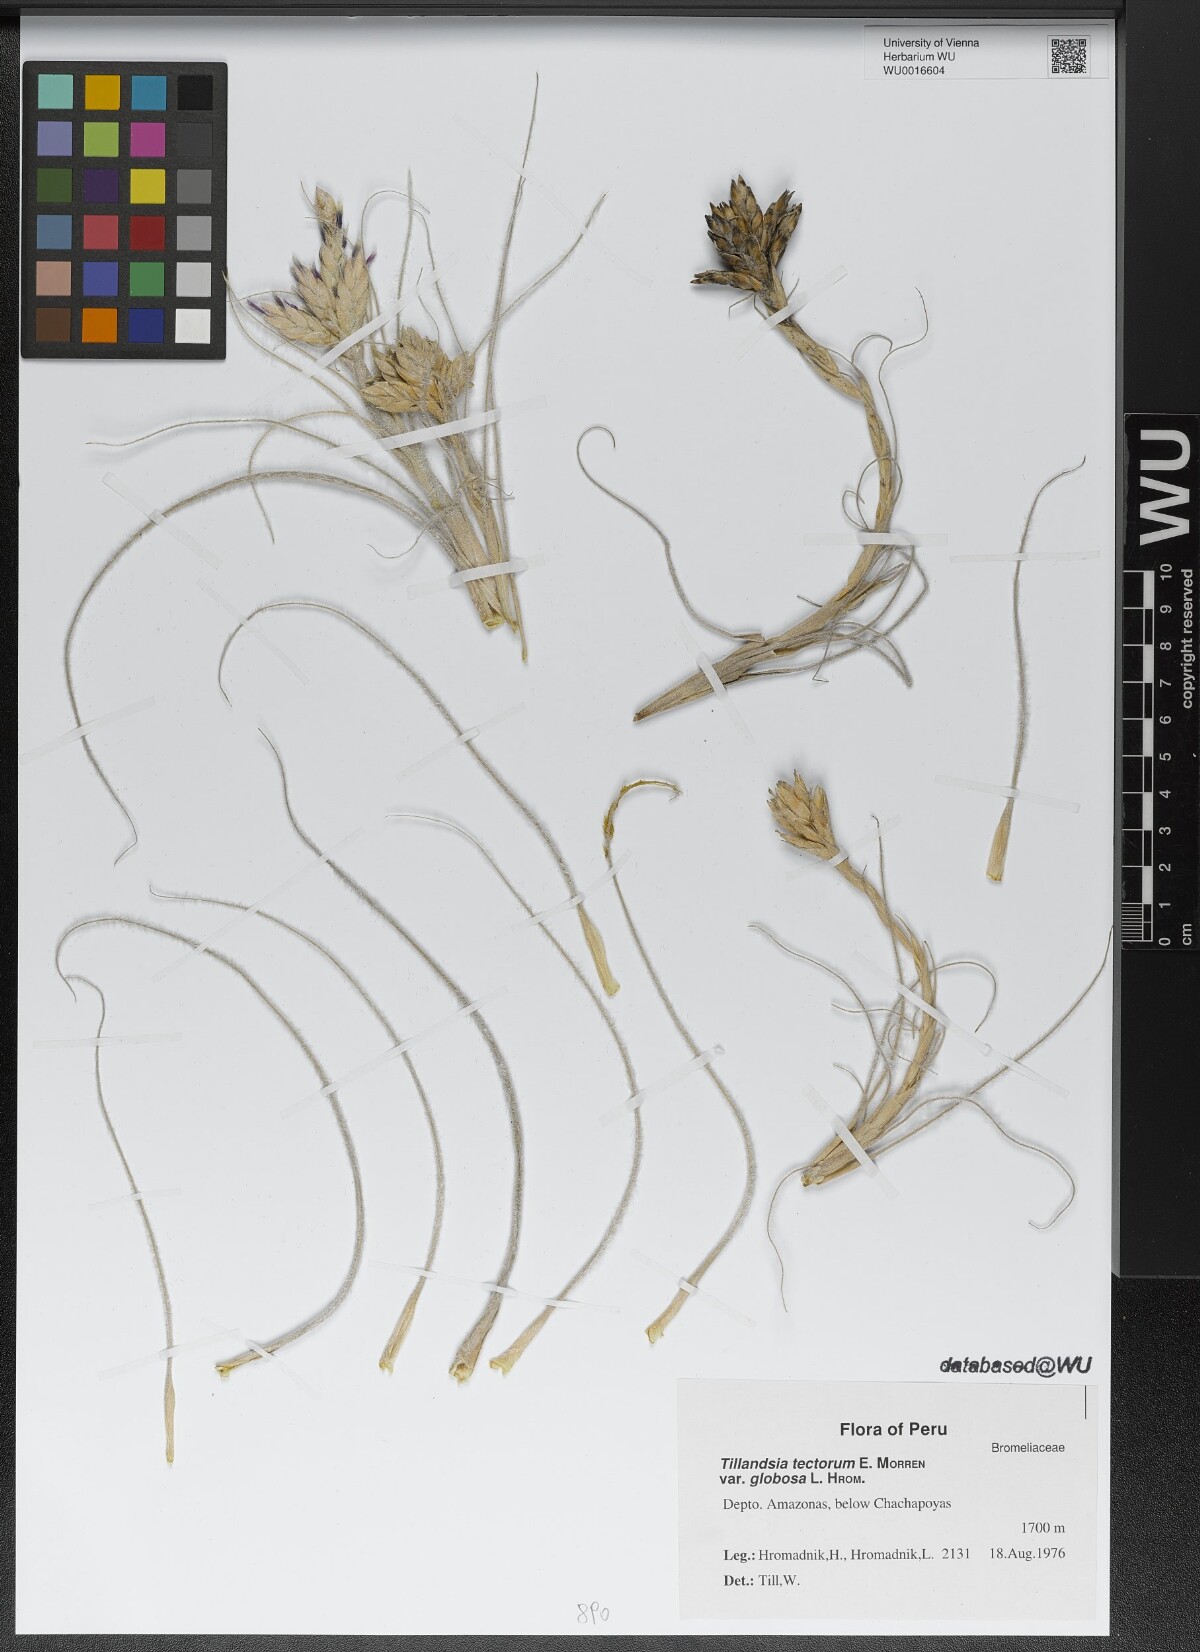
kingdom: Plantae
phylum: Tracheophyta
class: Liliopsida
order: Poales
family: Bromeliaceae
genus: Tillandsia
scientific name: Tillandsia tectorum
